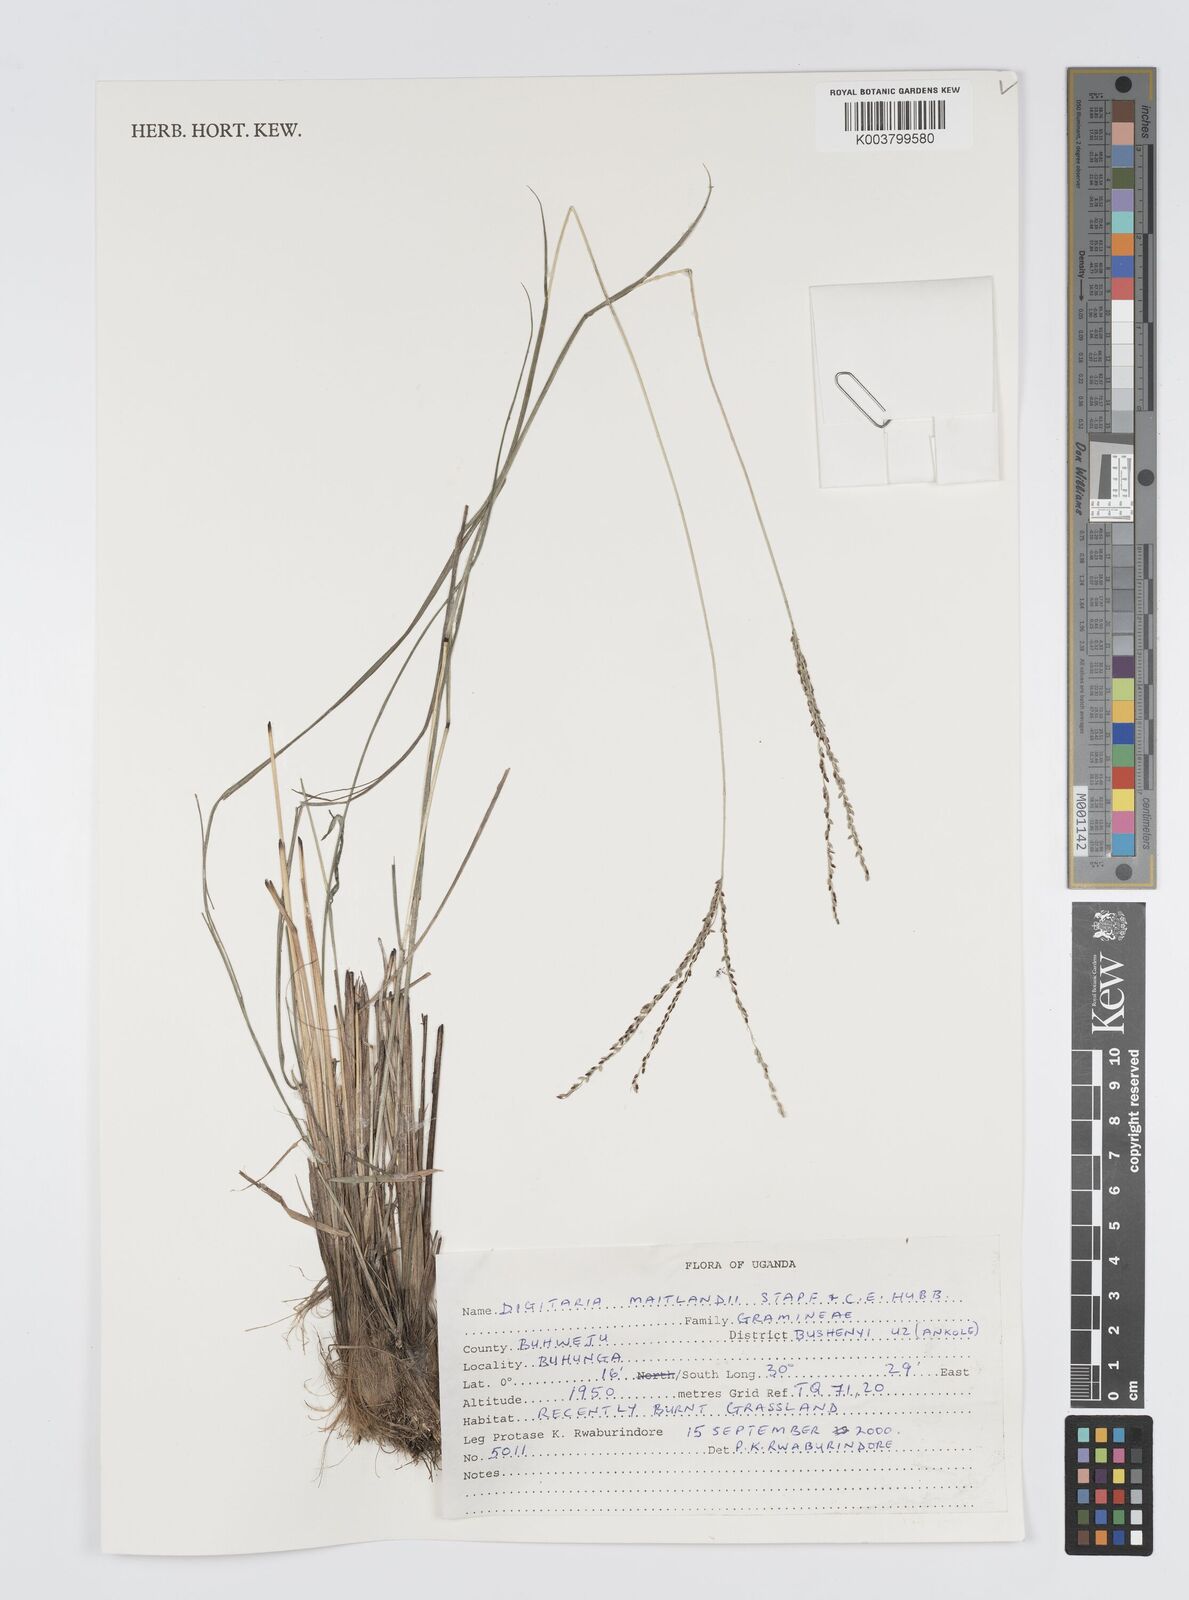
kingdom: Plantae
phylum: Tracheophyta
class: Liliopsida
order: Poales
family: Poaceae
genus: Digitaria
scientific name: Digitaria maitlandii
